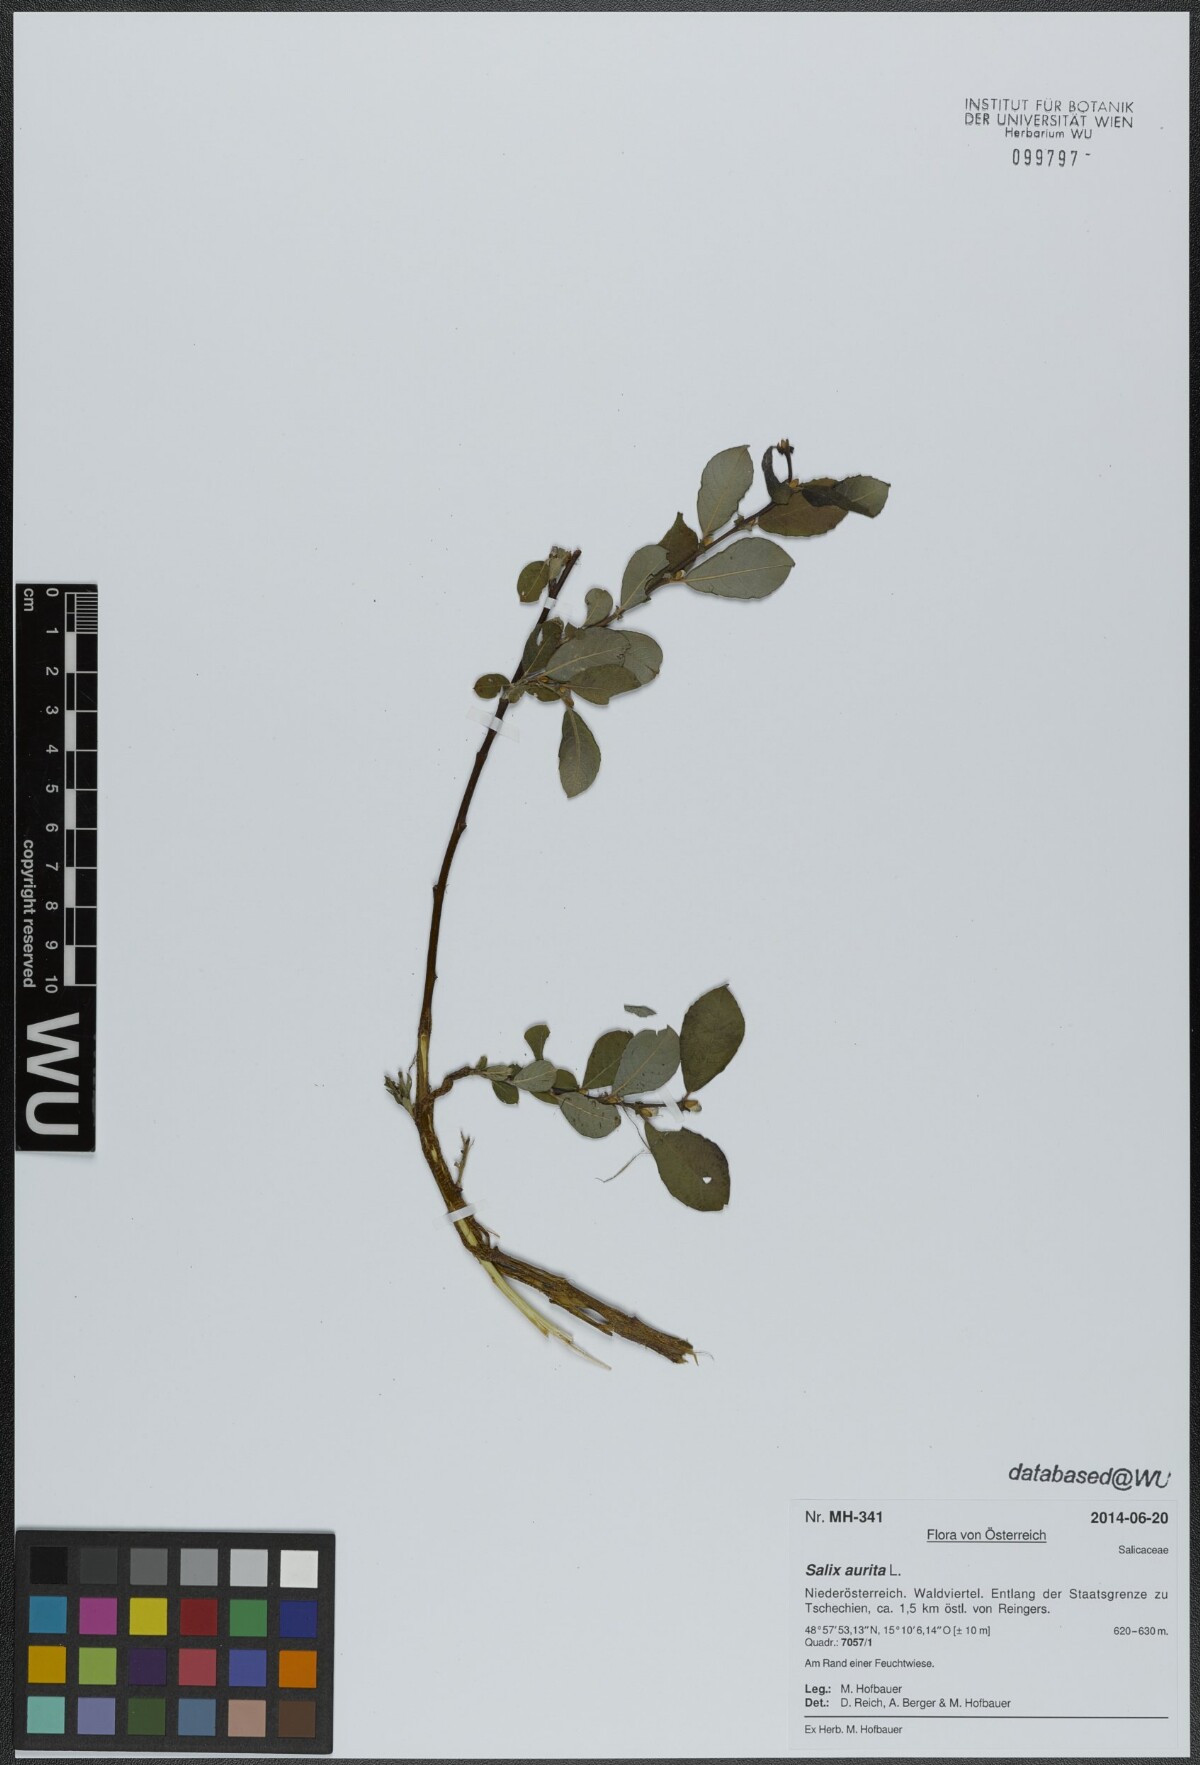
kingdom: Plantae
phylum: Tracheophyta
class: Magnoliopsida
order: Malpighiales
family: Salicaceae
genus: Salix
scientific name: Salix aurita
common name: Eared willow
